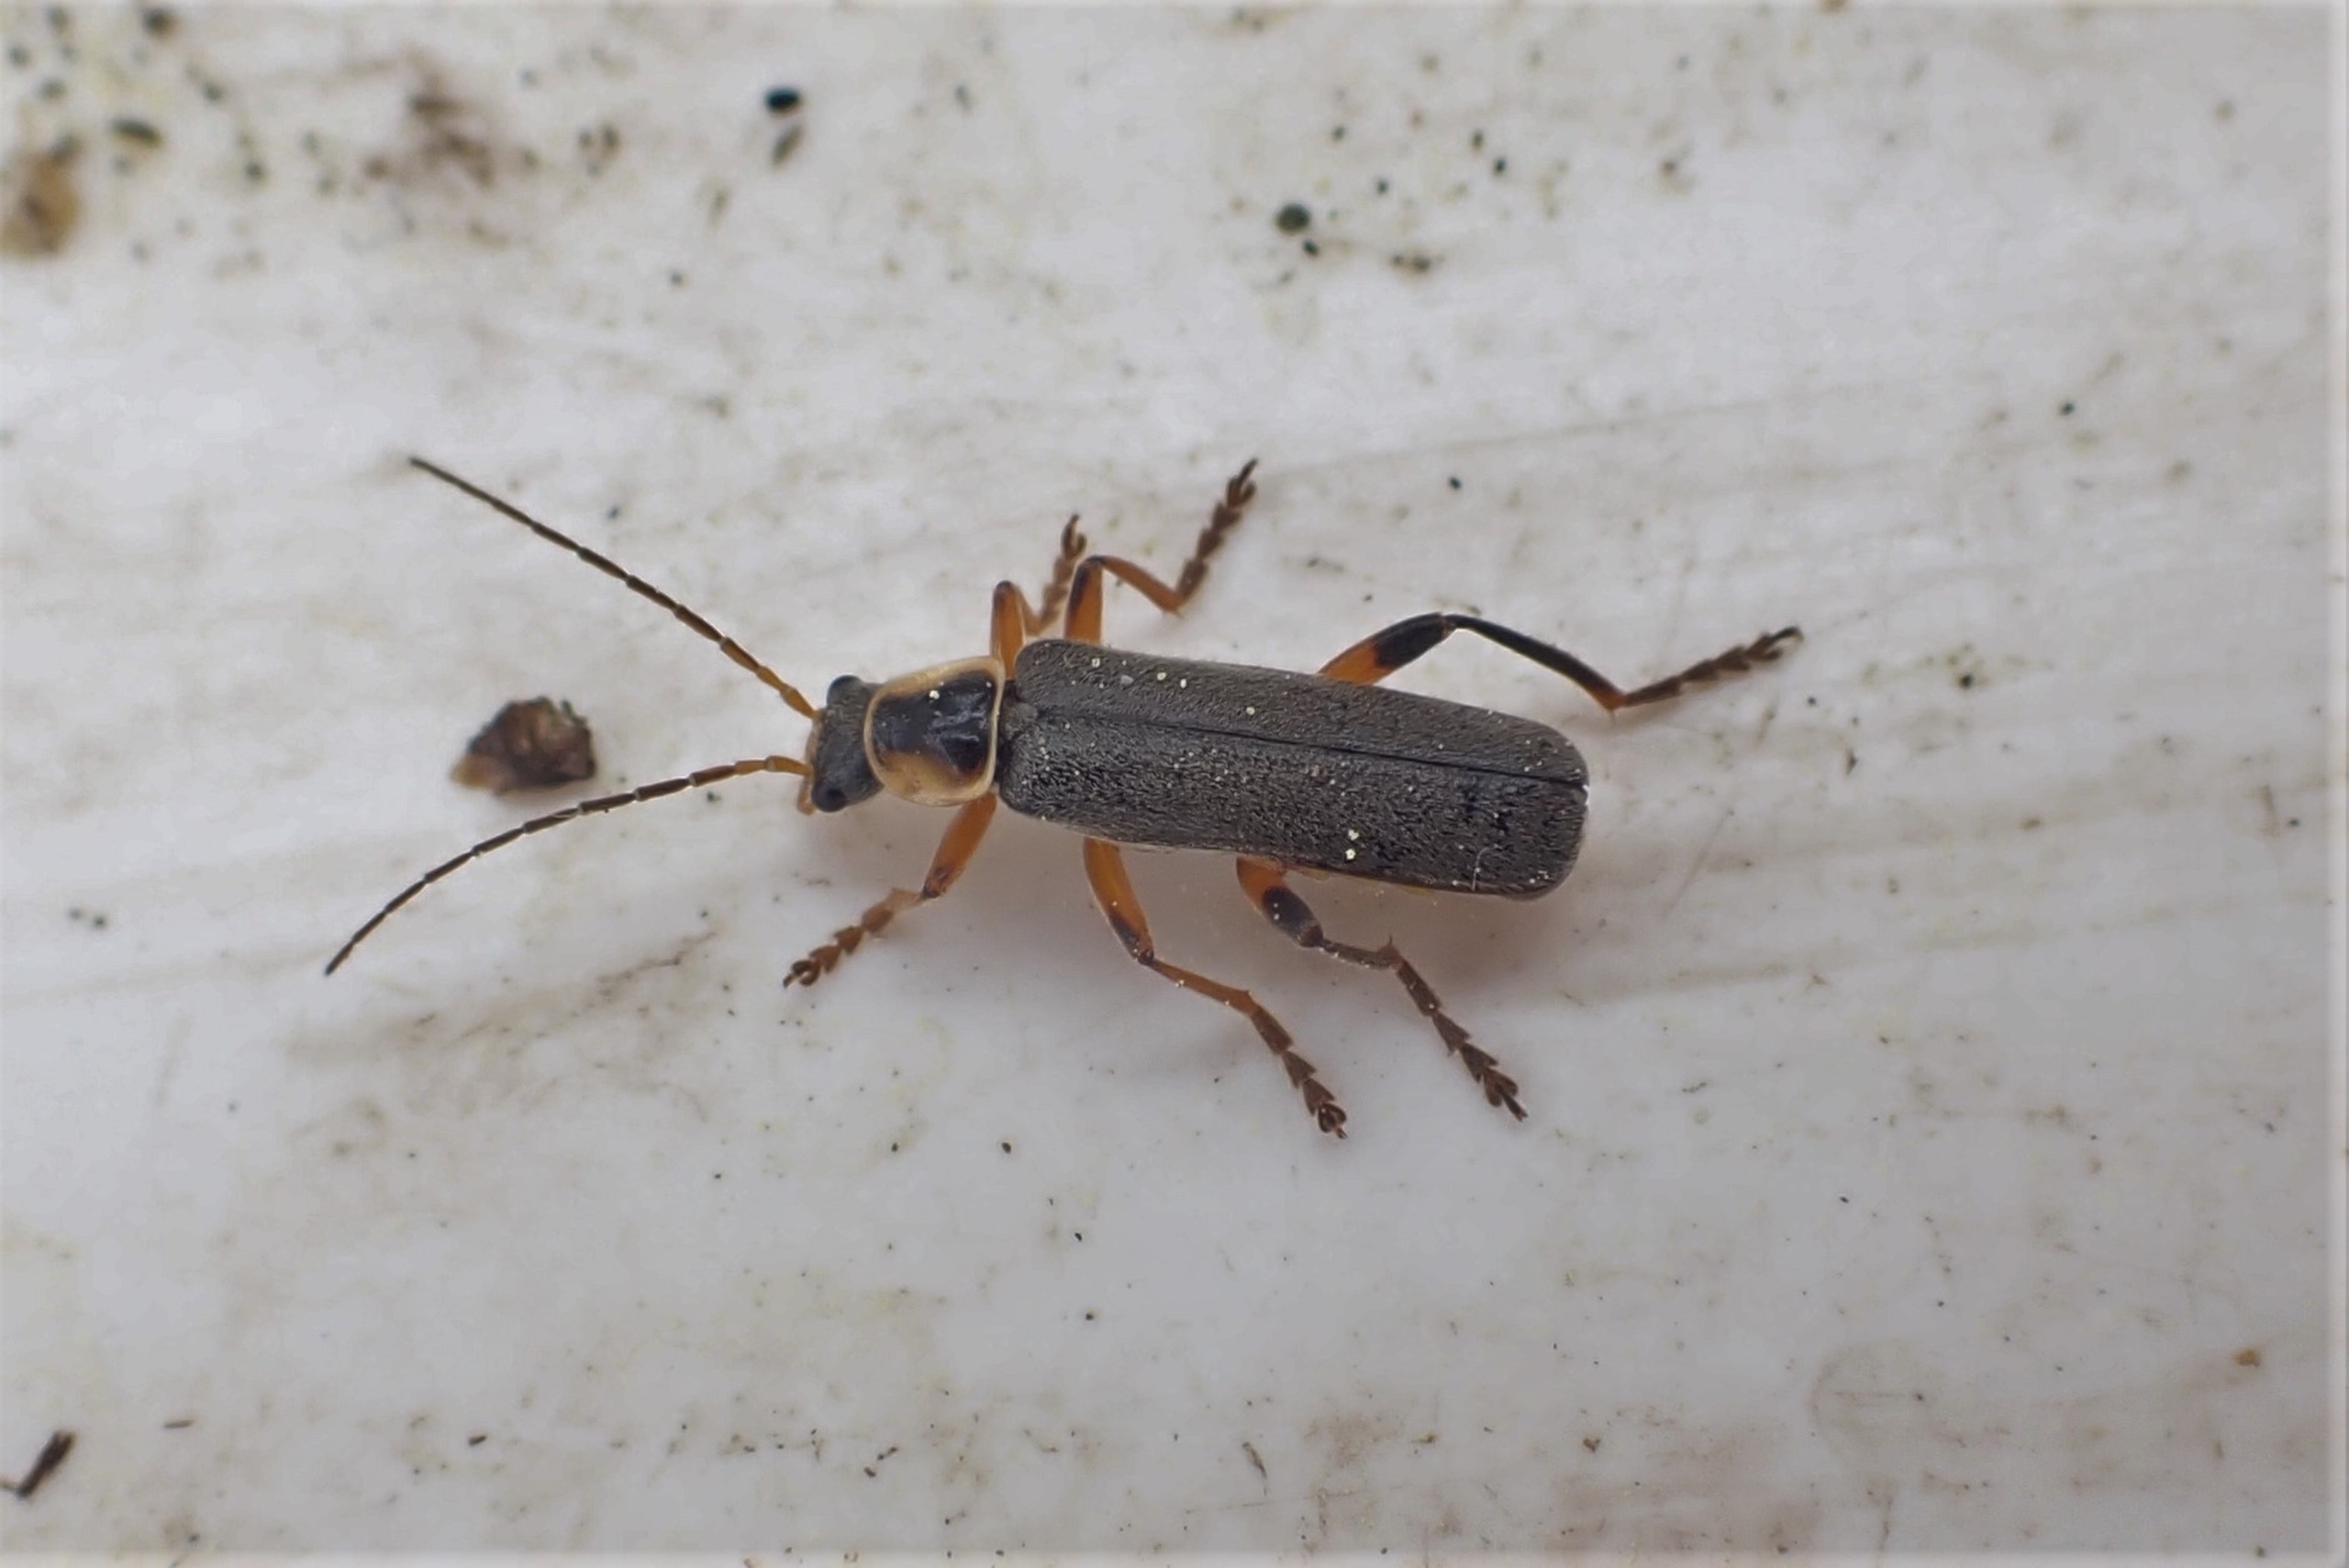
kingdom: Animalia
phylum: Arthropoda
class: Insecta
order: Coleoptera
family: Cantharidae
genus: Cantharis
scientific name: Cantharis nigricans
